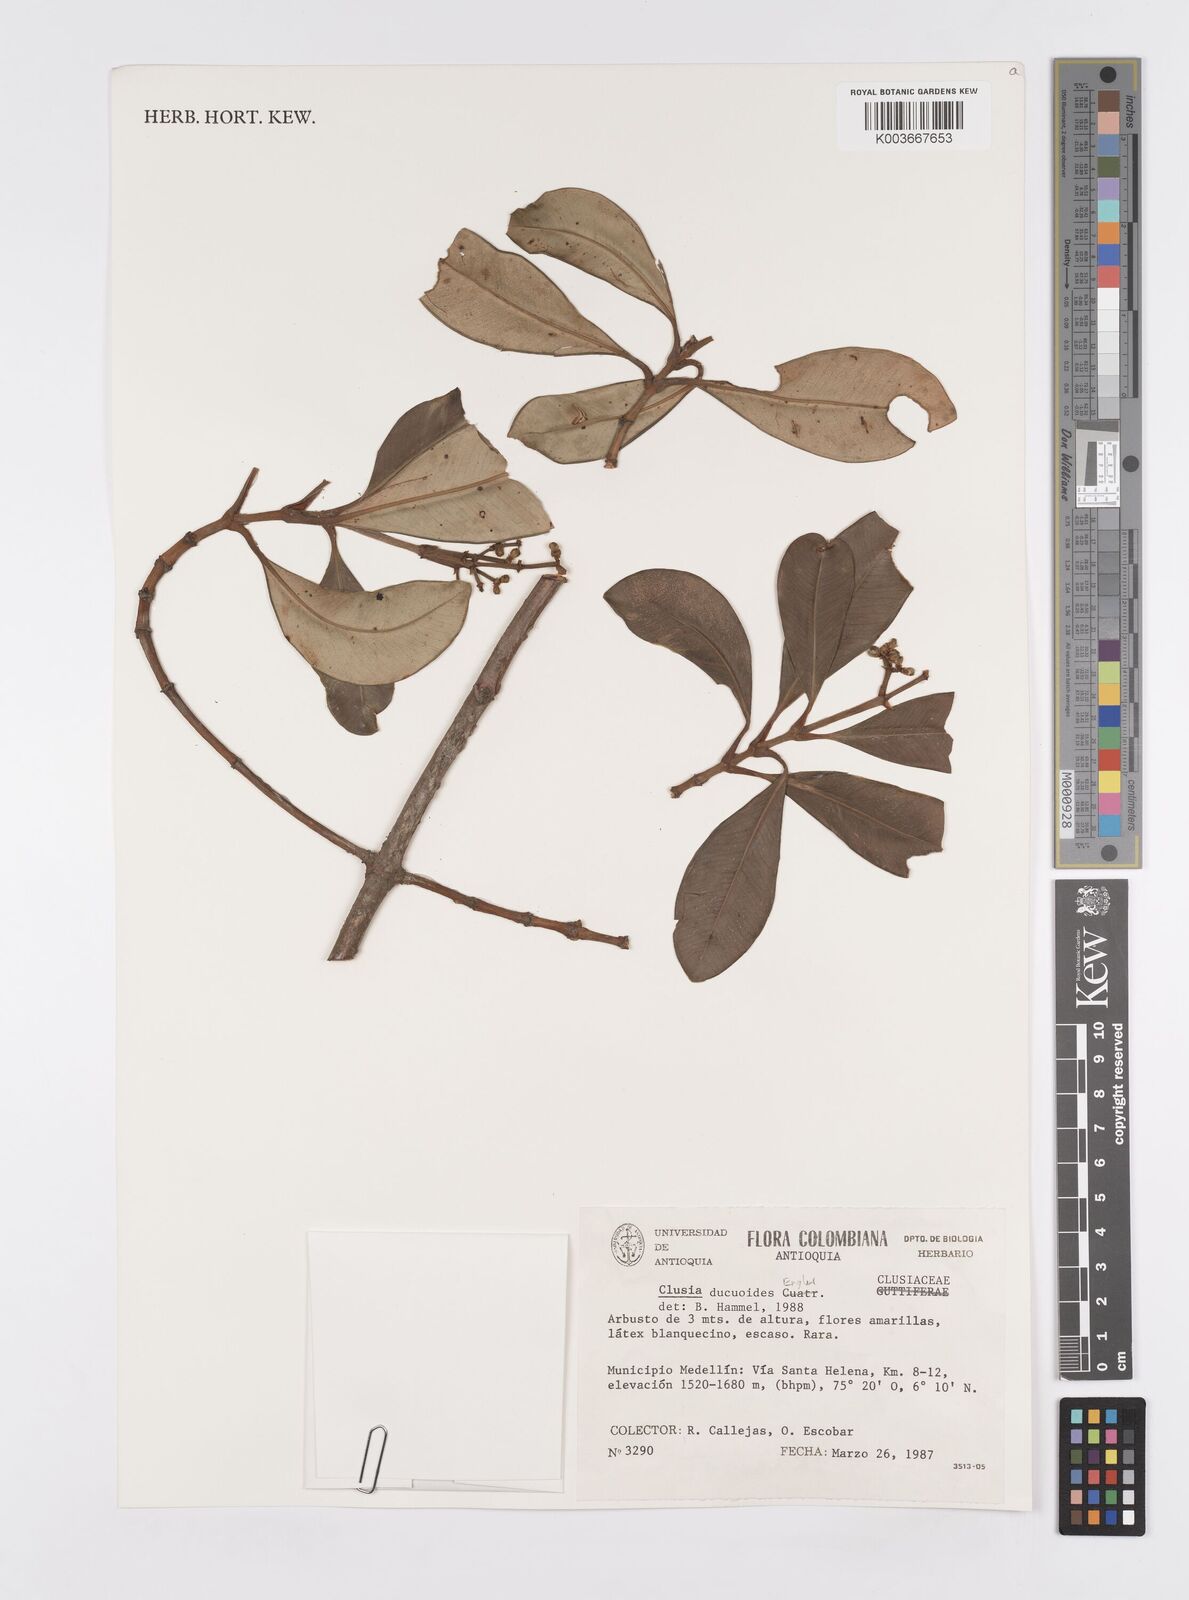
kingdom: Plantae
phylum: Tracheophyta
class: Magnoliopsida
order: Malpighiales
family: Clusiaceae
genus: Clusia
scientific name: Clusia ducuoides
